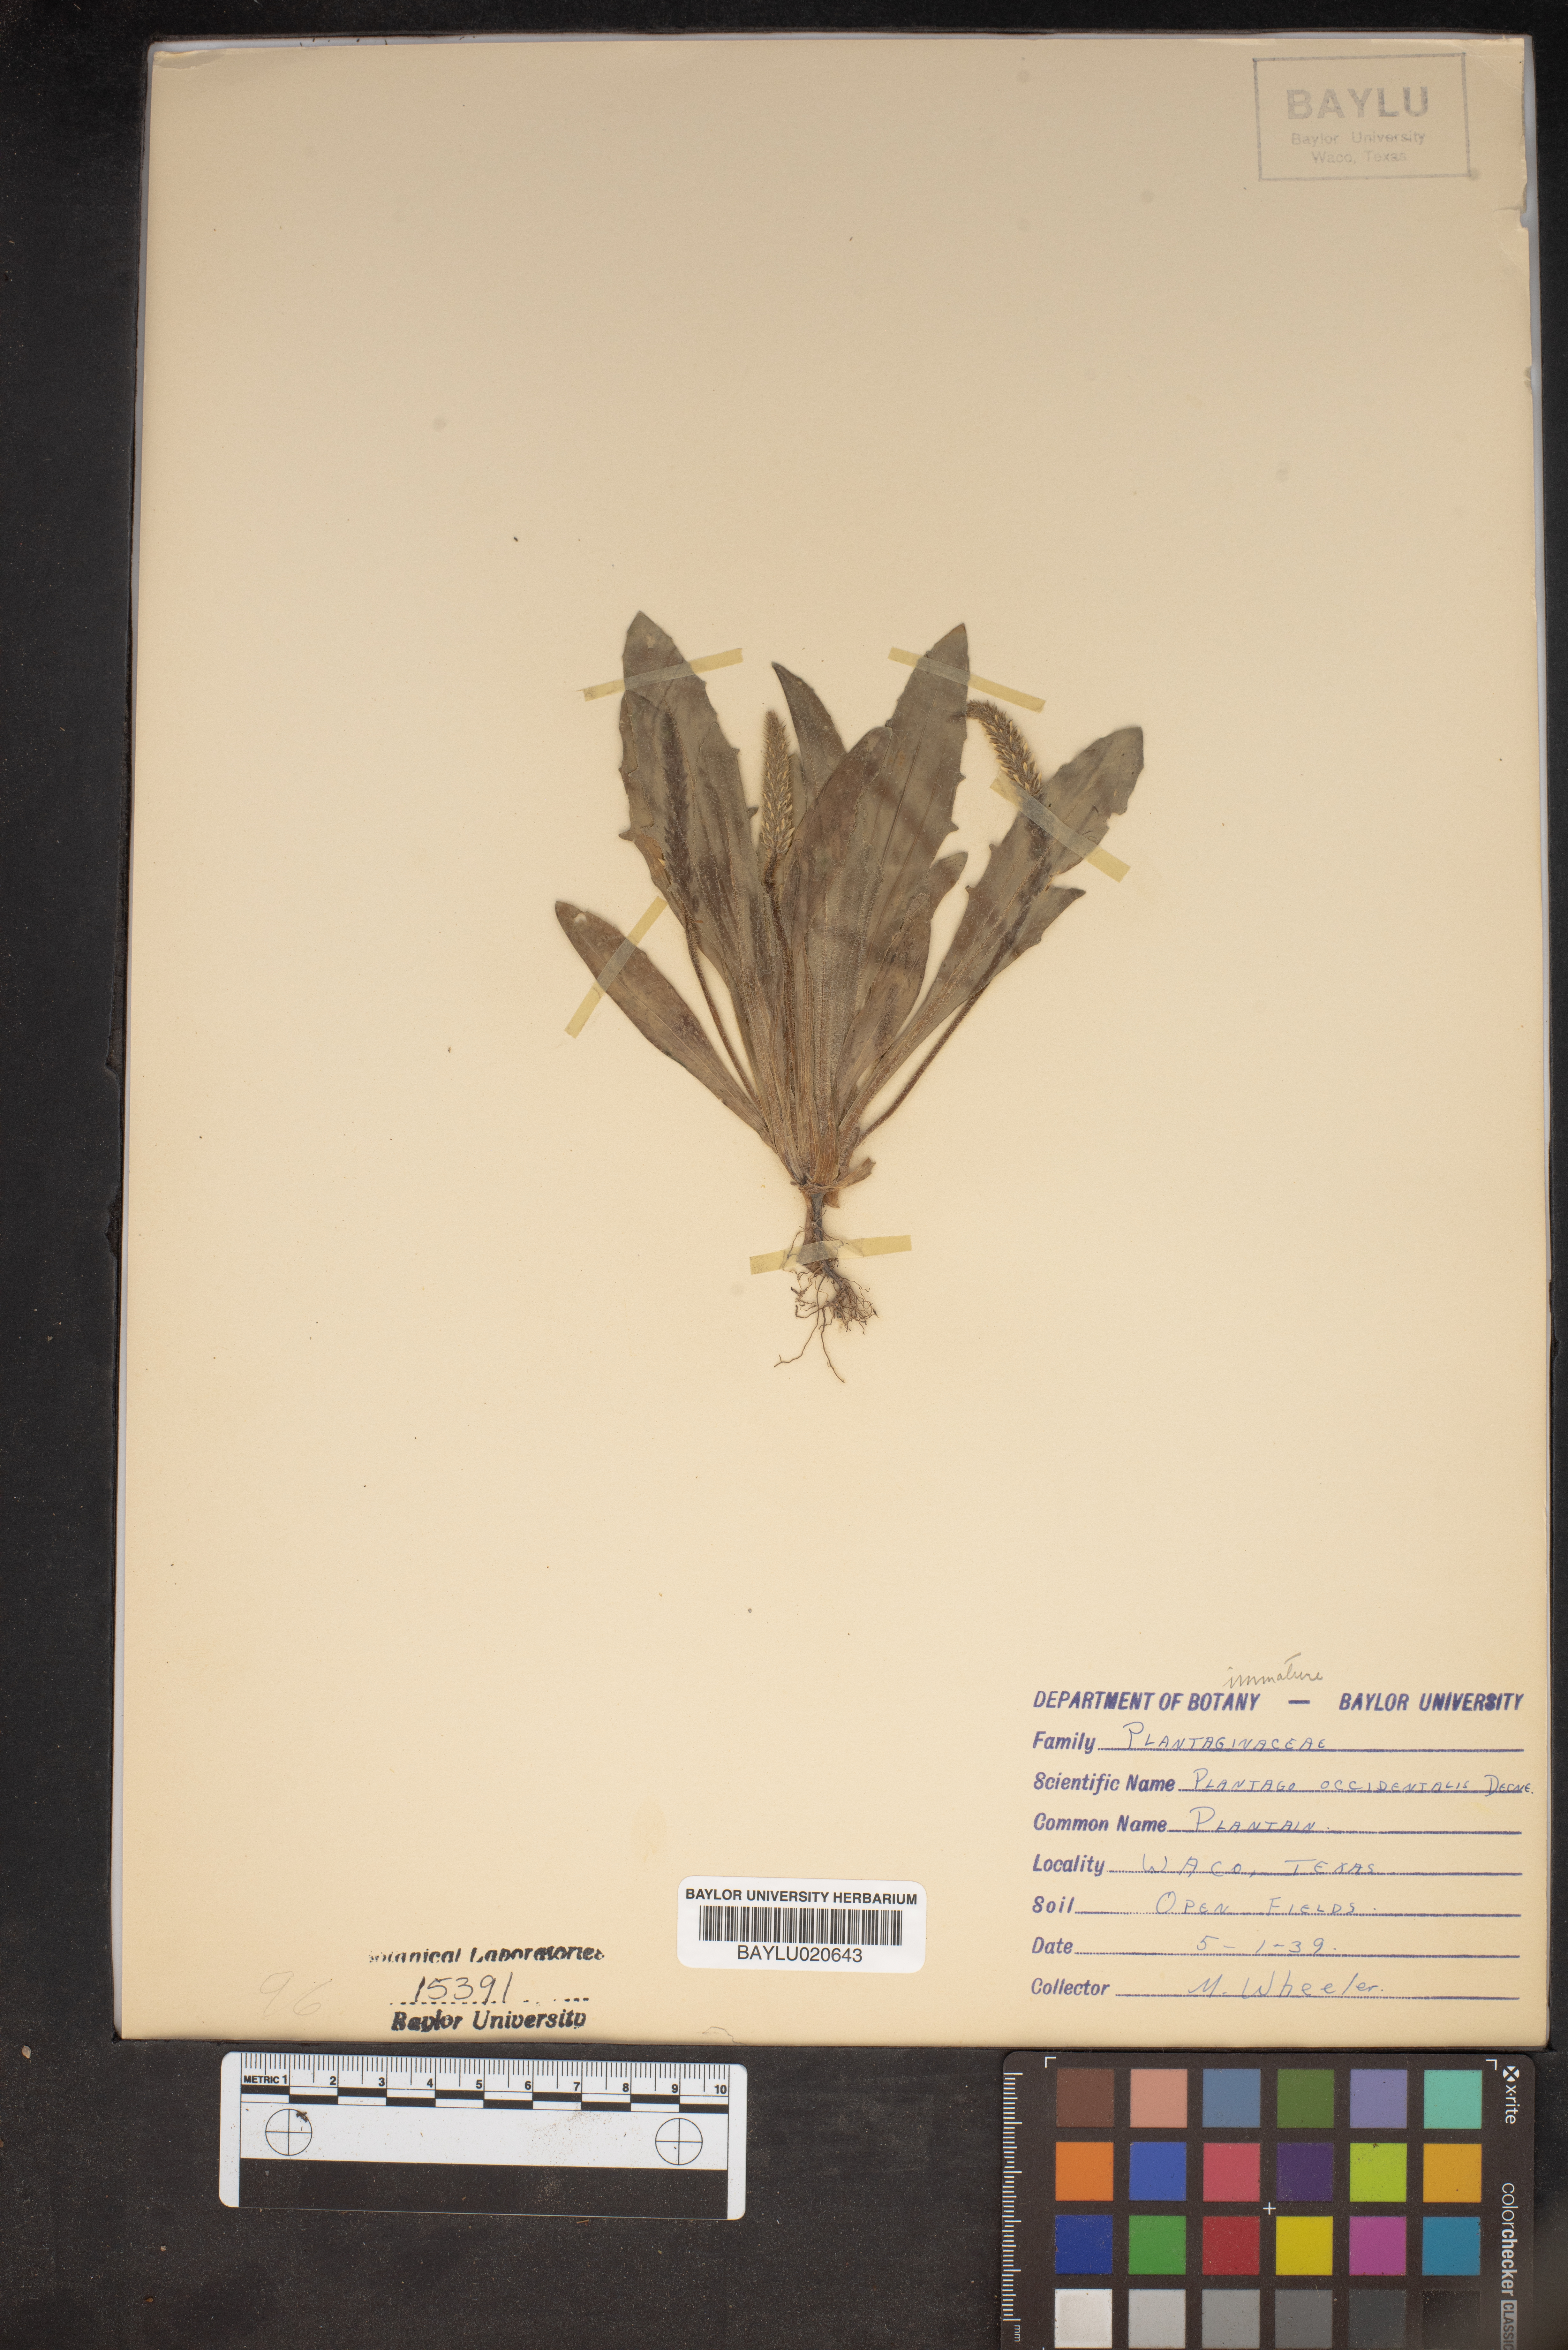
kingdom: Plantae
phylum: Tracheophyta
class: Magnoliopsida
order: Lamiales
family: Plantaginaceae
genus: Plantago
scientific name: Plantago myosuros
